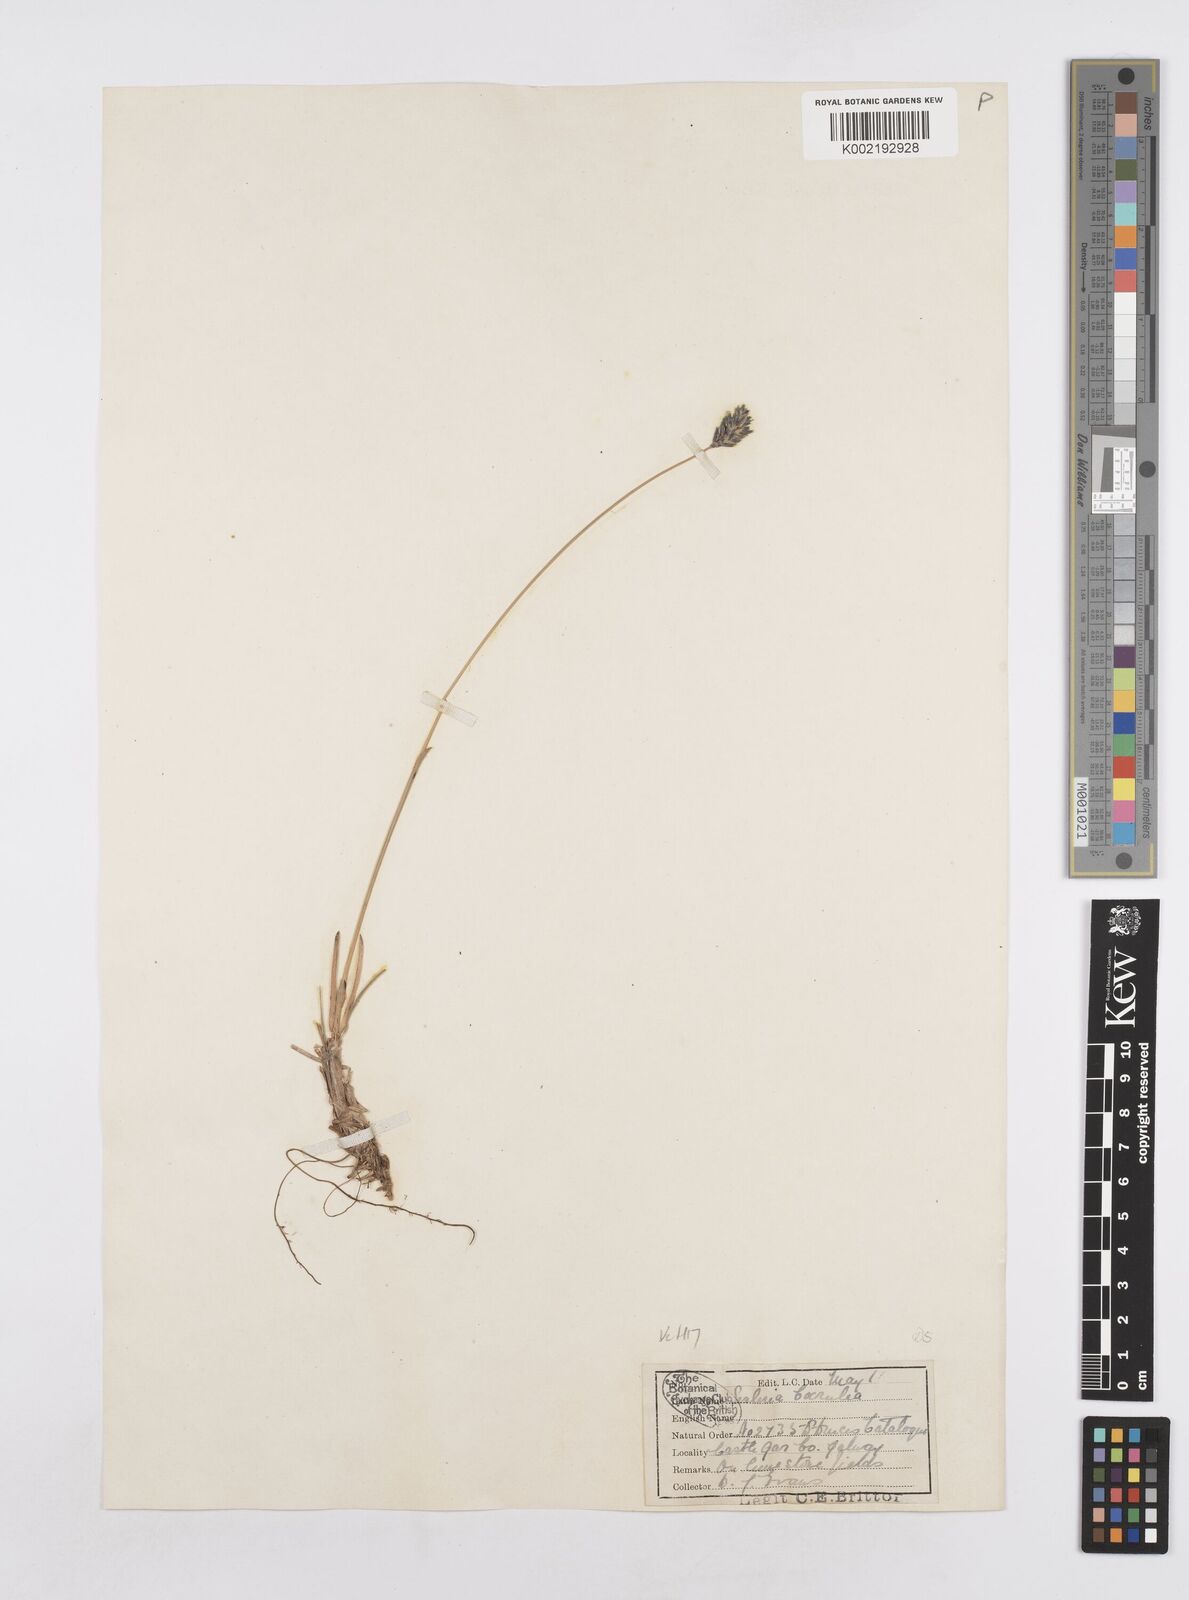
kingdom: Plantae
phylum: Tracheophyta
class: Liliopsida
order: Poales
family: Poaceae
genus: Sesleria
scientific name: Sesleria caerulea
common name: Blue moor-grass
